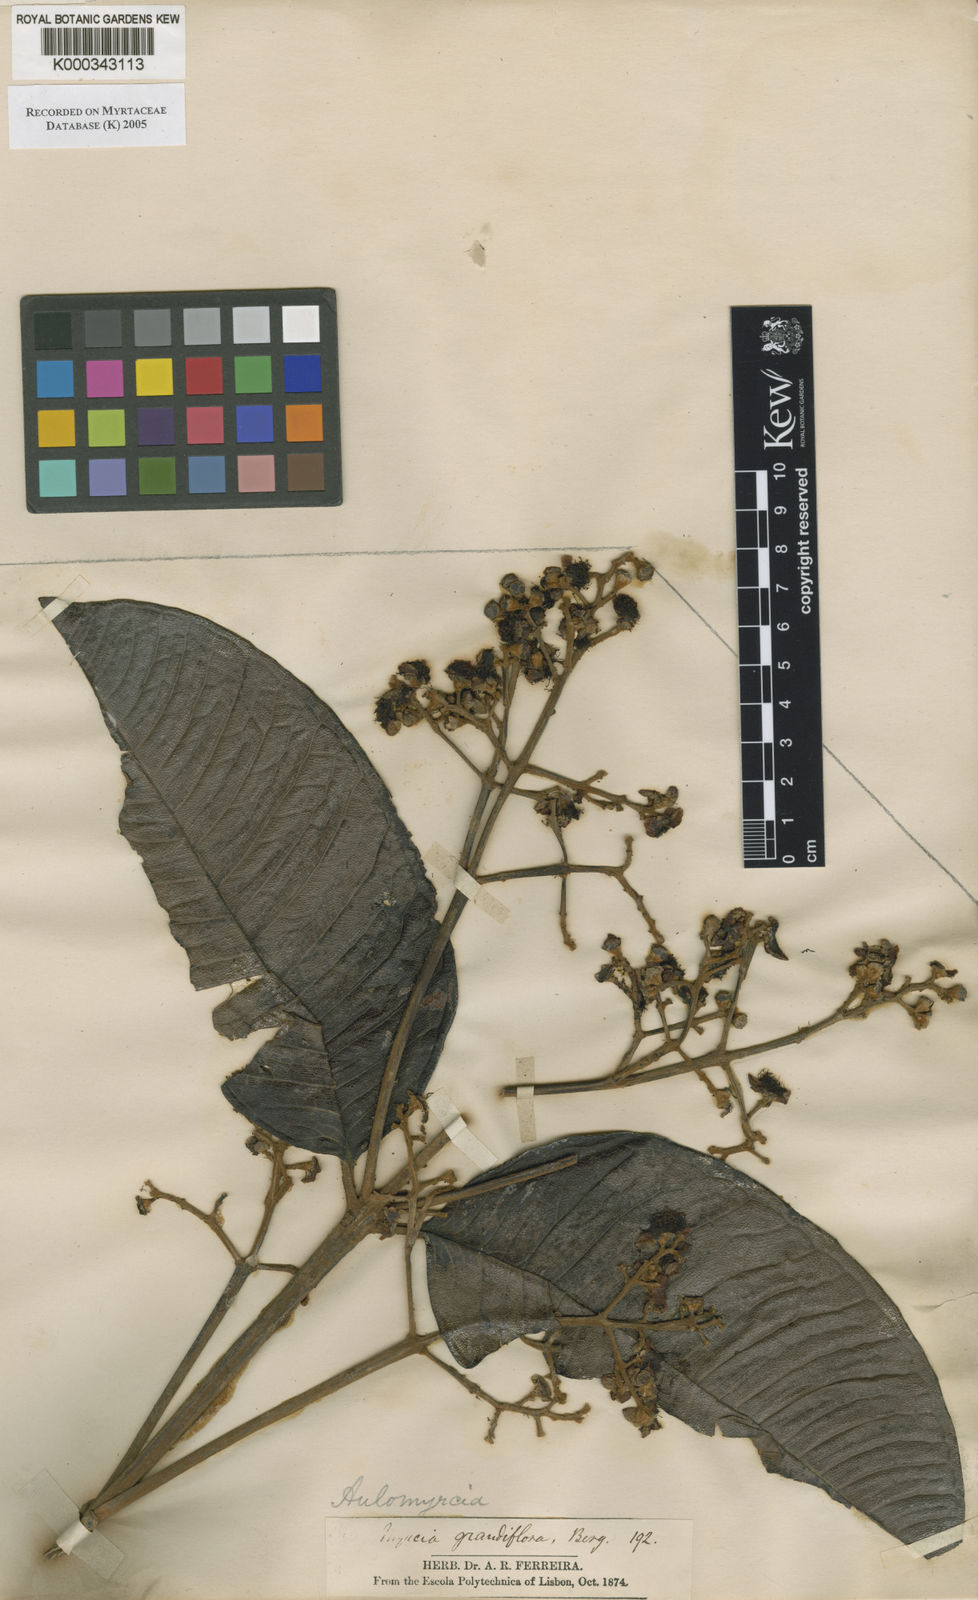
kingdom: Plantae
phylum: Tracheophyta
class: Magnoliopsida
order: Myrtales
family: Myrtaceae
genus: Myrcia
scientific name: Myrcia pubipetala
